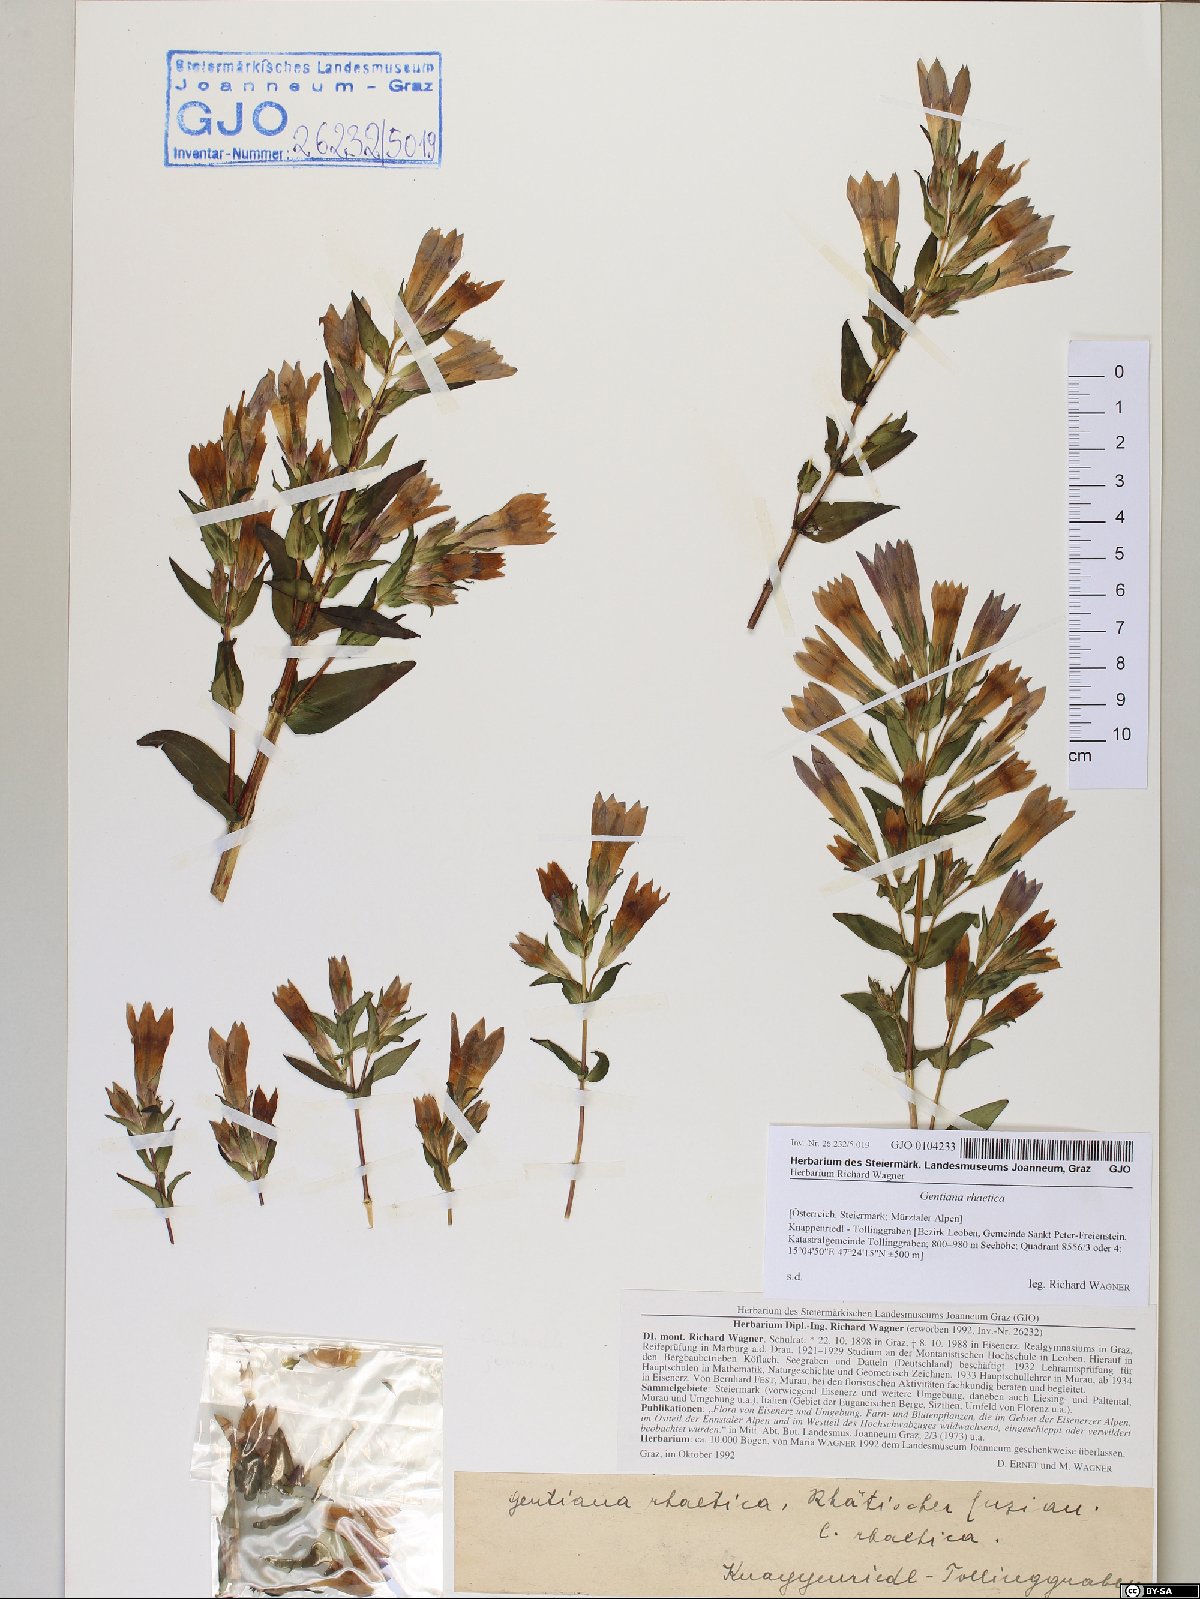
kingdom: Plantae
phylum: Tracheophyta
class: Magnoliopsida
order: Gentianales
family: Gentianaceae
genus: Gentianella
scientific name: Gentianella rhaetica
